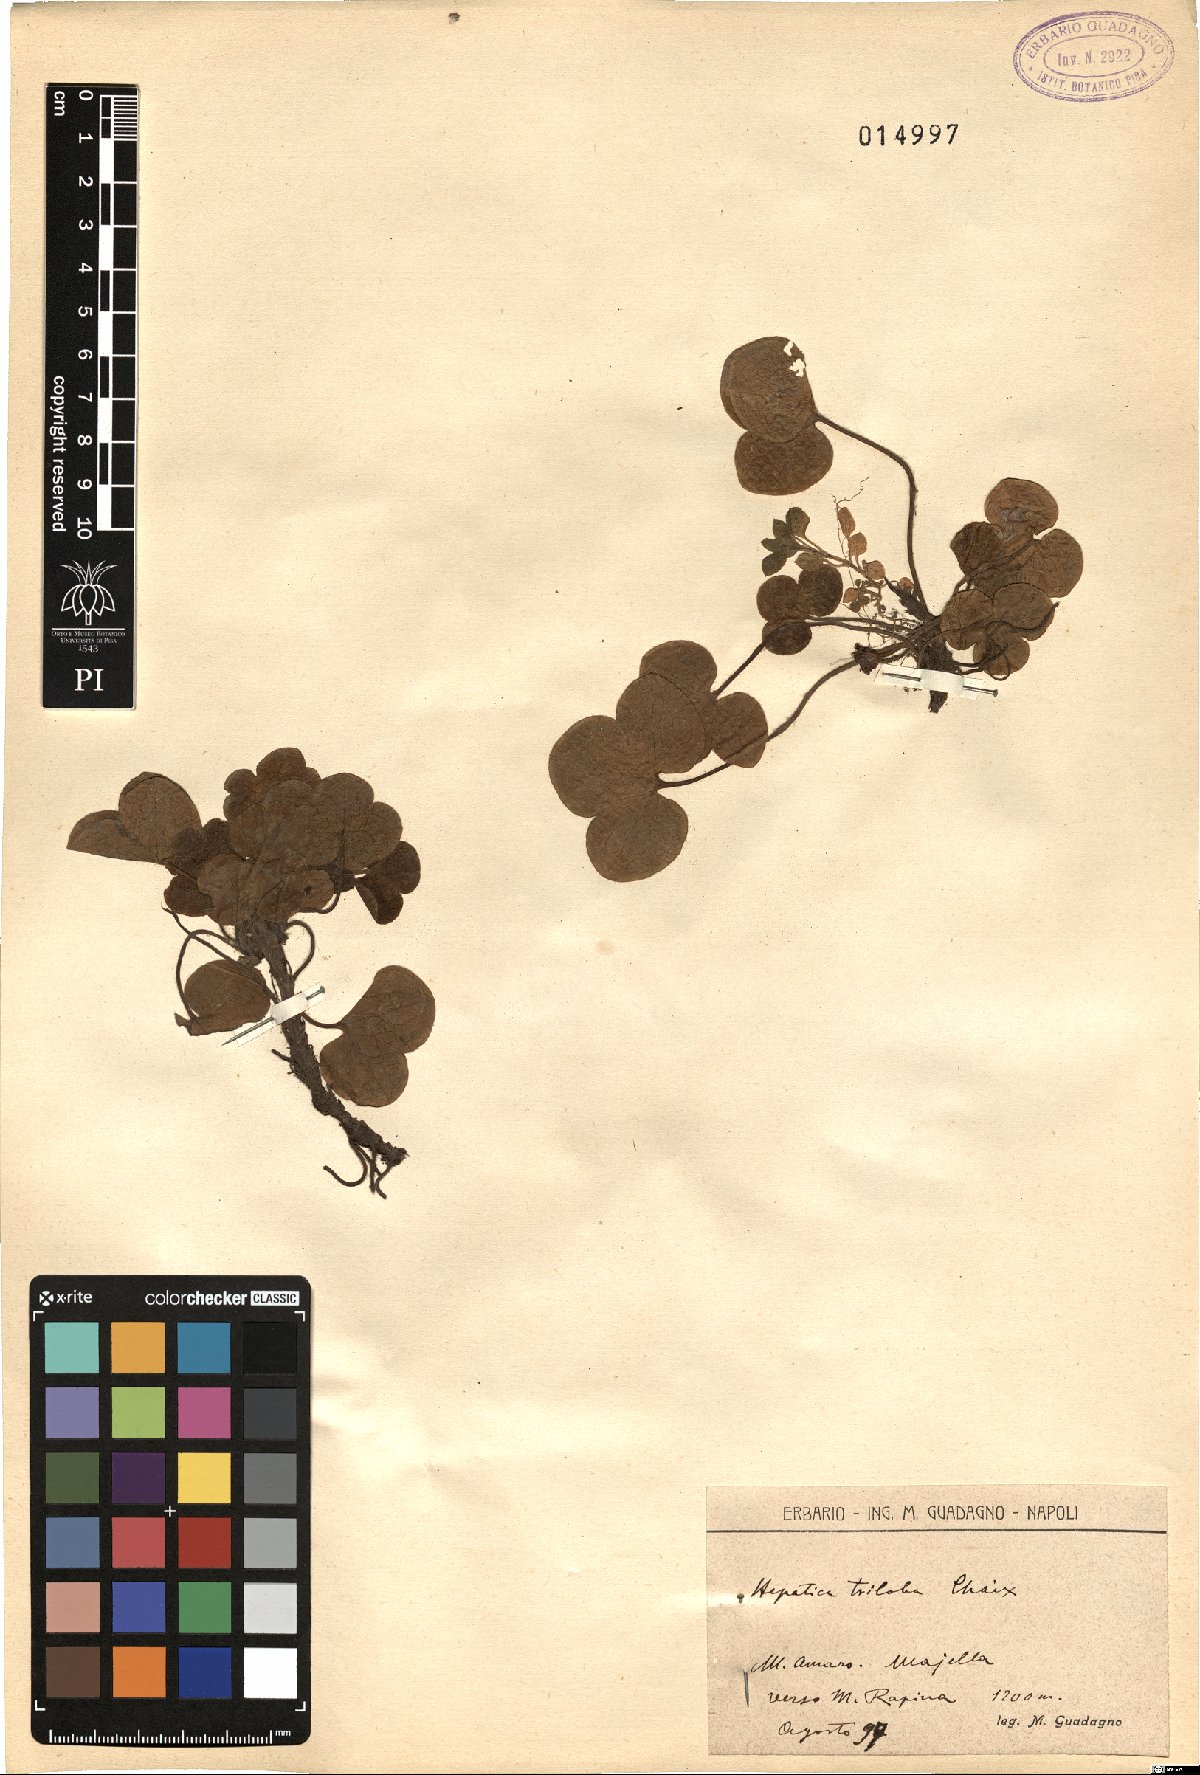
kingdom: Plantae
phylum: Tracheophyta
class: Magnoliopsida
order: Ranunculales
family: Ranunculaceae
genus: Hepatica
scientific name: Hepatica nobilis
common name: Liverleaf
